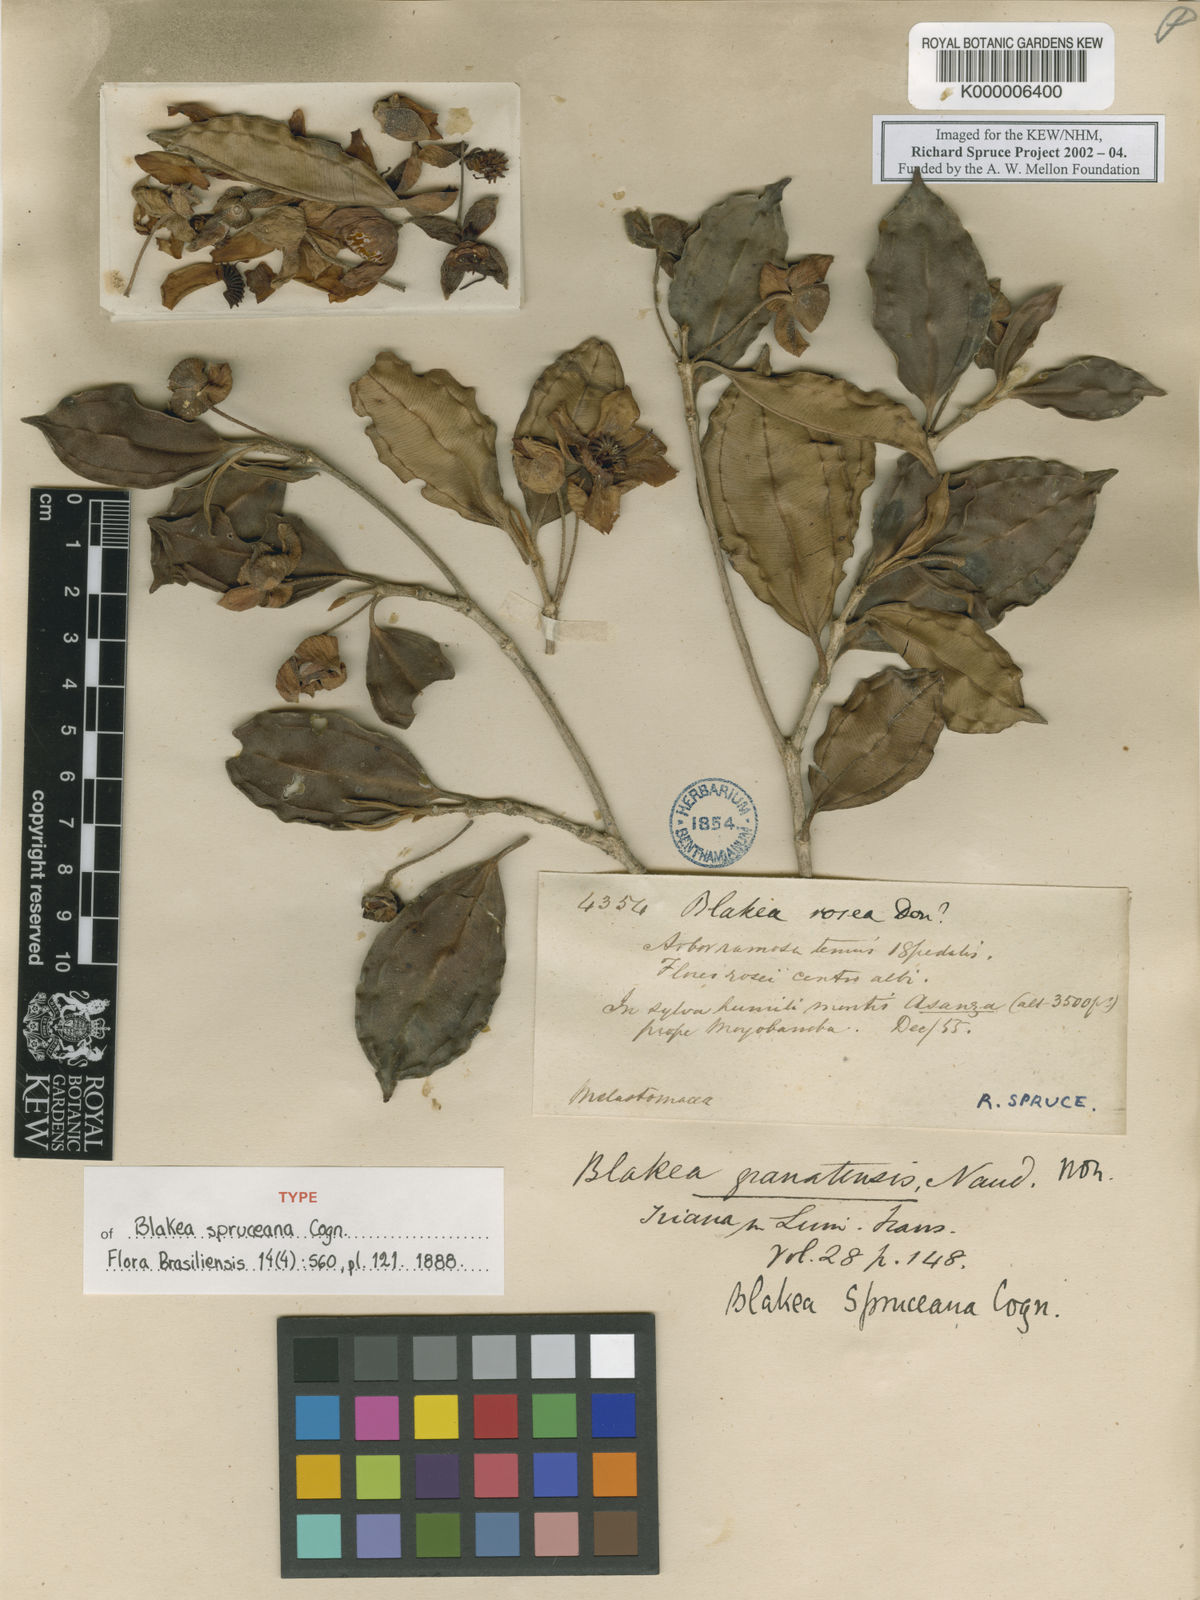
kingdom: Plantae
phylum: Tracheophyta
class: Magnoliopsida
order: Myrtales
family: Melastomataceae
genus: Blakea
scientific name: Blakea spruceana
